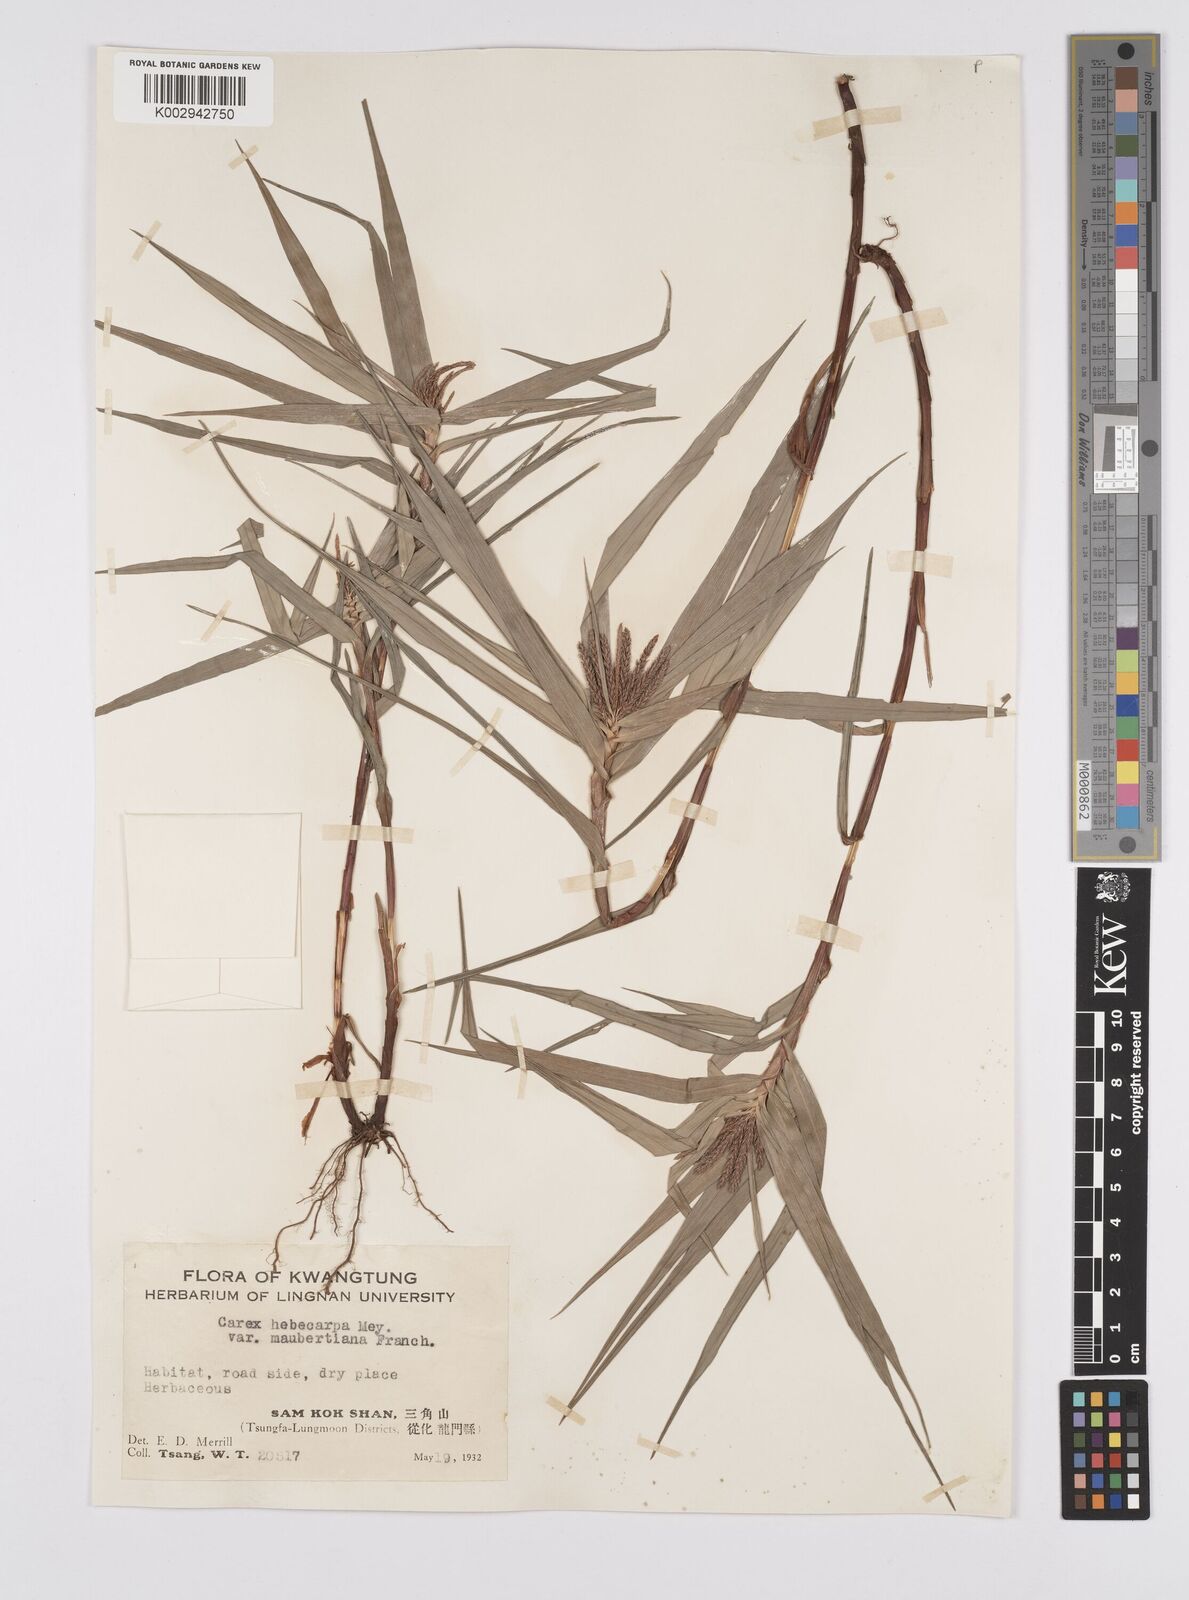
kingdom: Plantae
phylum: Tracheophyta
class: Liliopsida
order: Poales
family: Cyperaceae
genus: Carex
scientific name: Carex maubertiana
